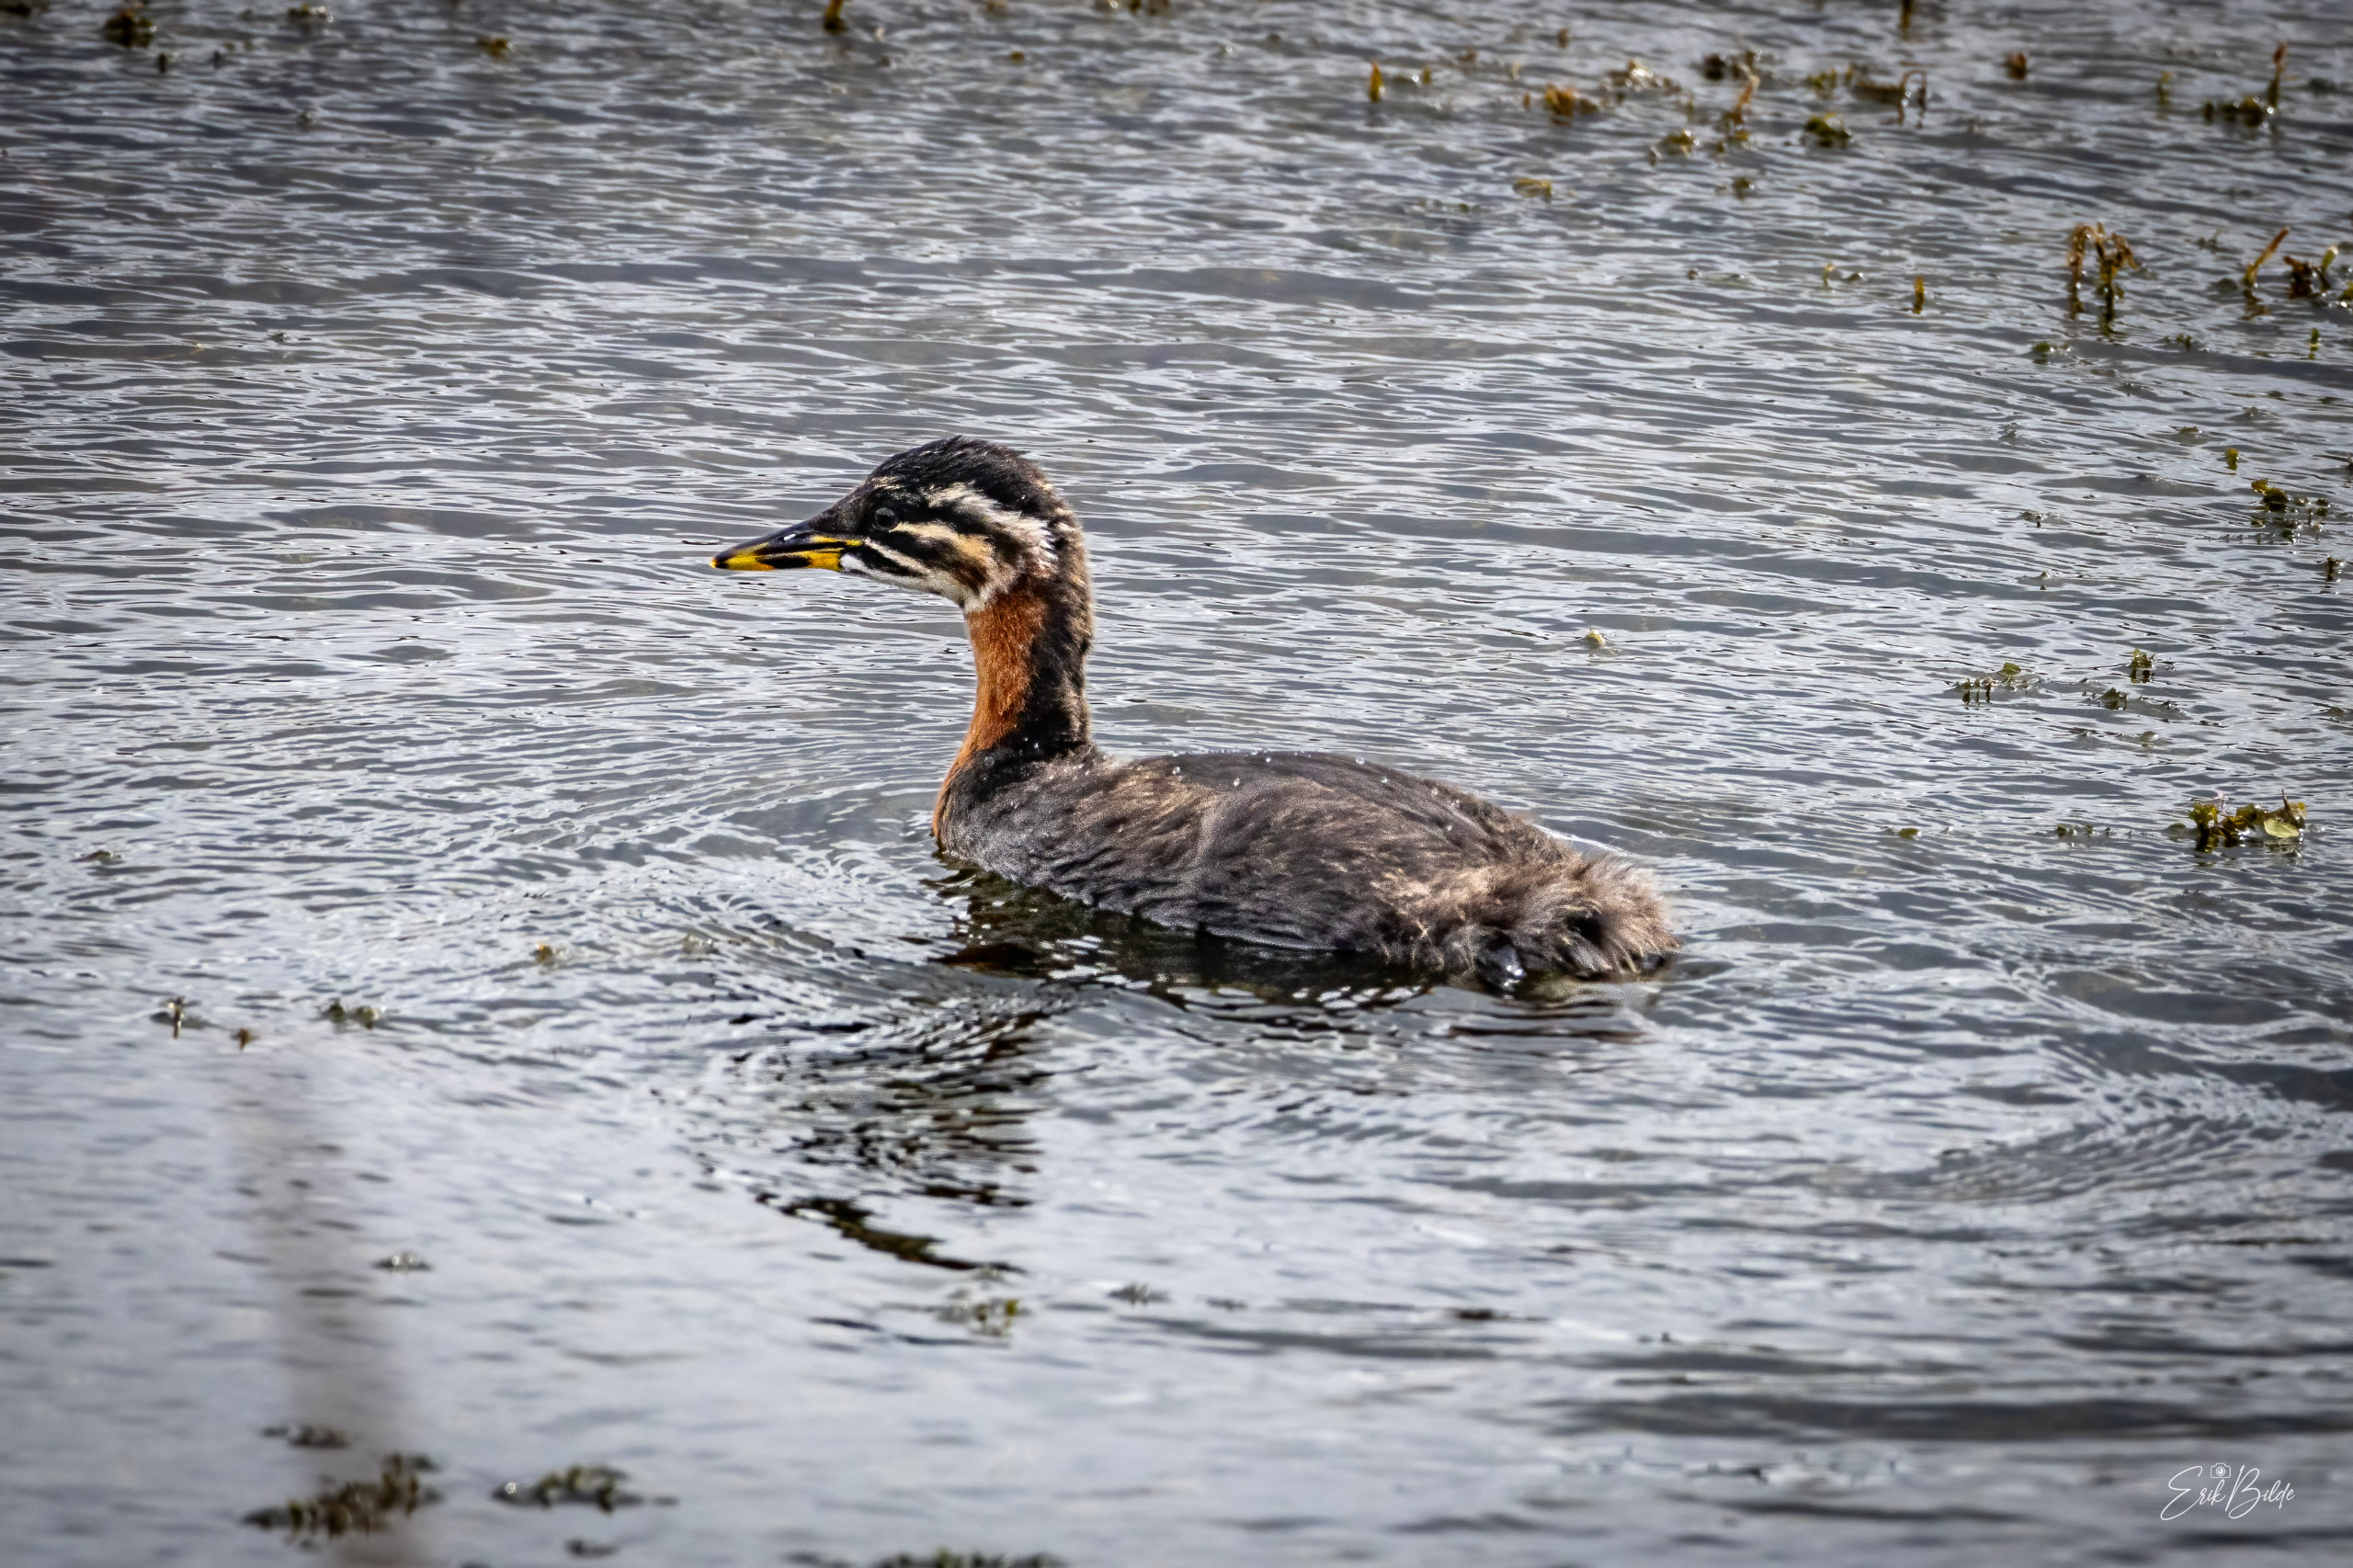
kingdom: Animalia
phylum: Chordata
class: Aves
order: Podicipediformes
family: Podicipedidae
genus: Podiceps
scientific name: Podiceps grisegena
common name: Gråstrubet lappedykker
